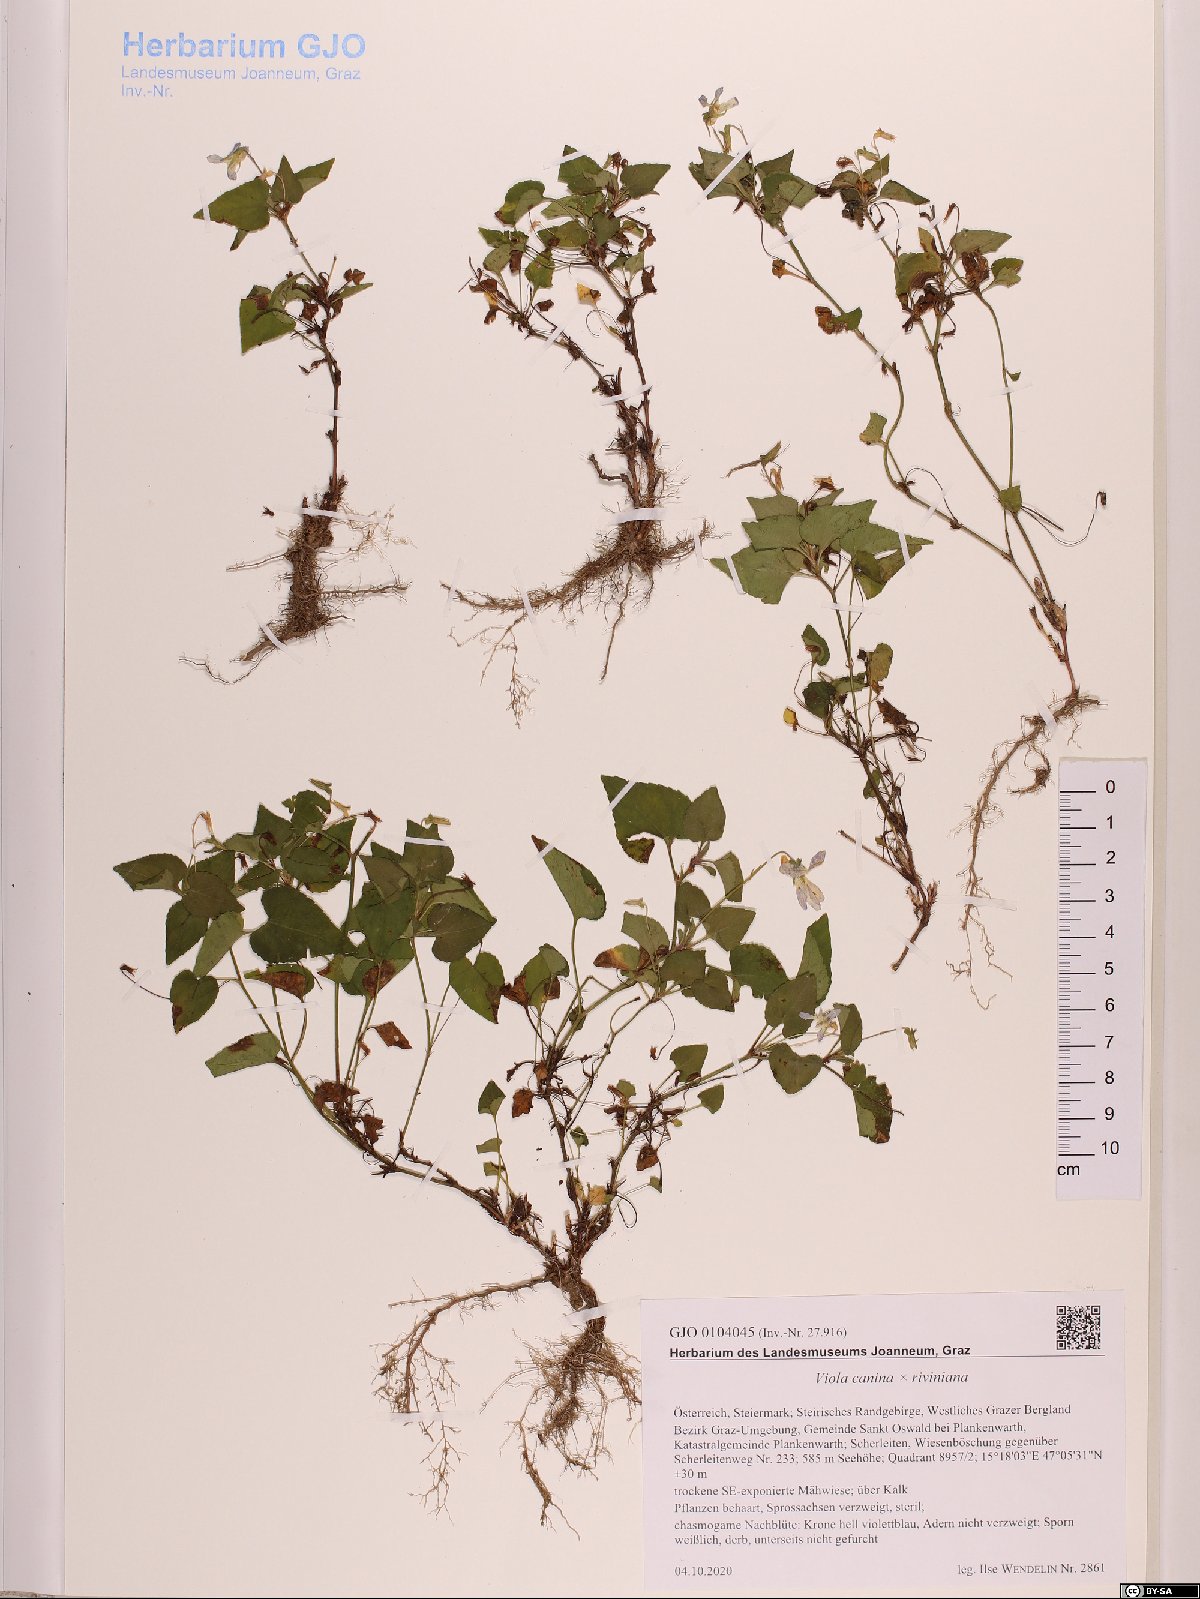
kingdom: Plantae
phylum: Tracheophyta
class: Magnoliopsida
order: Malpighiales
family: Violaceae
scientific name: Violaceae
